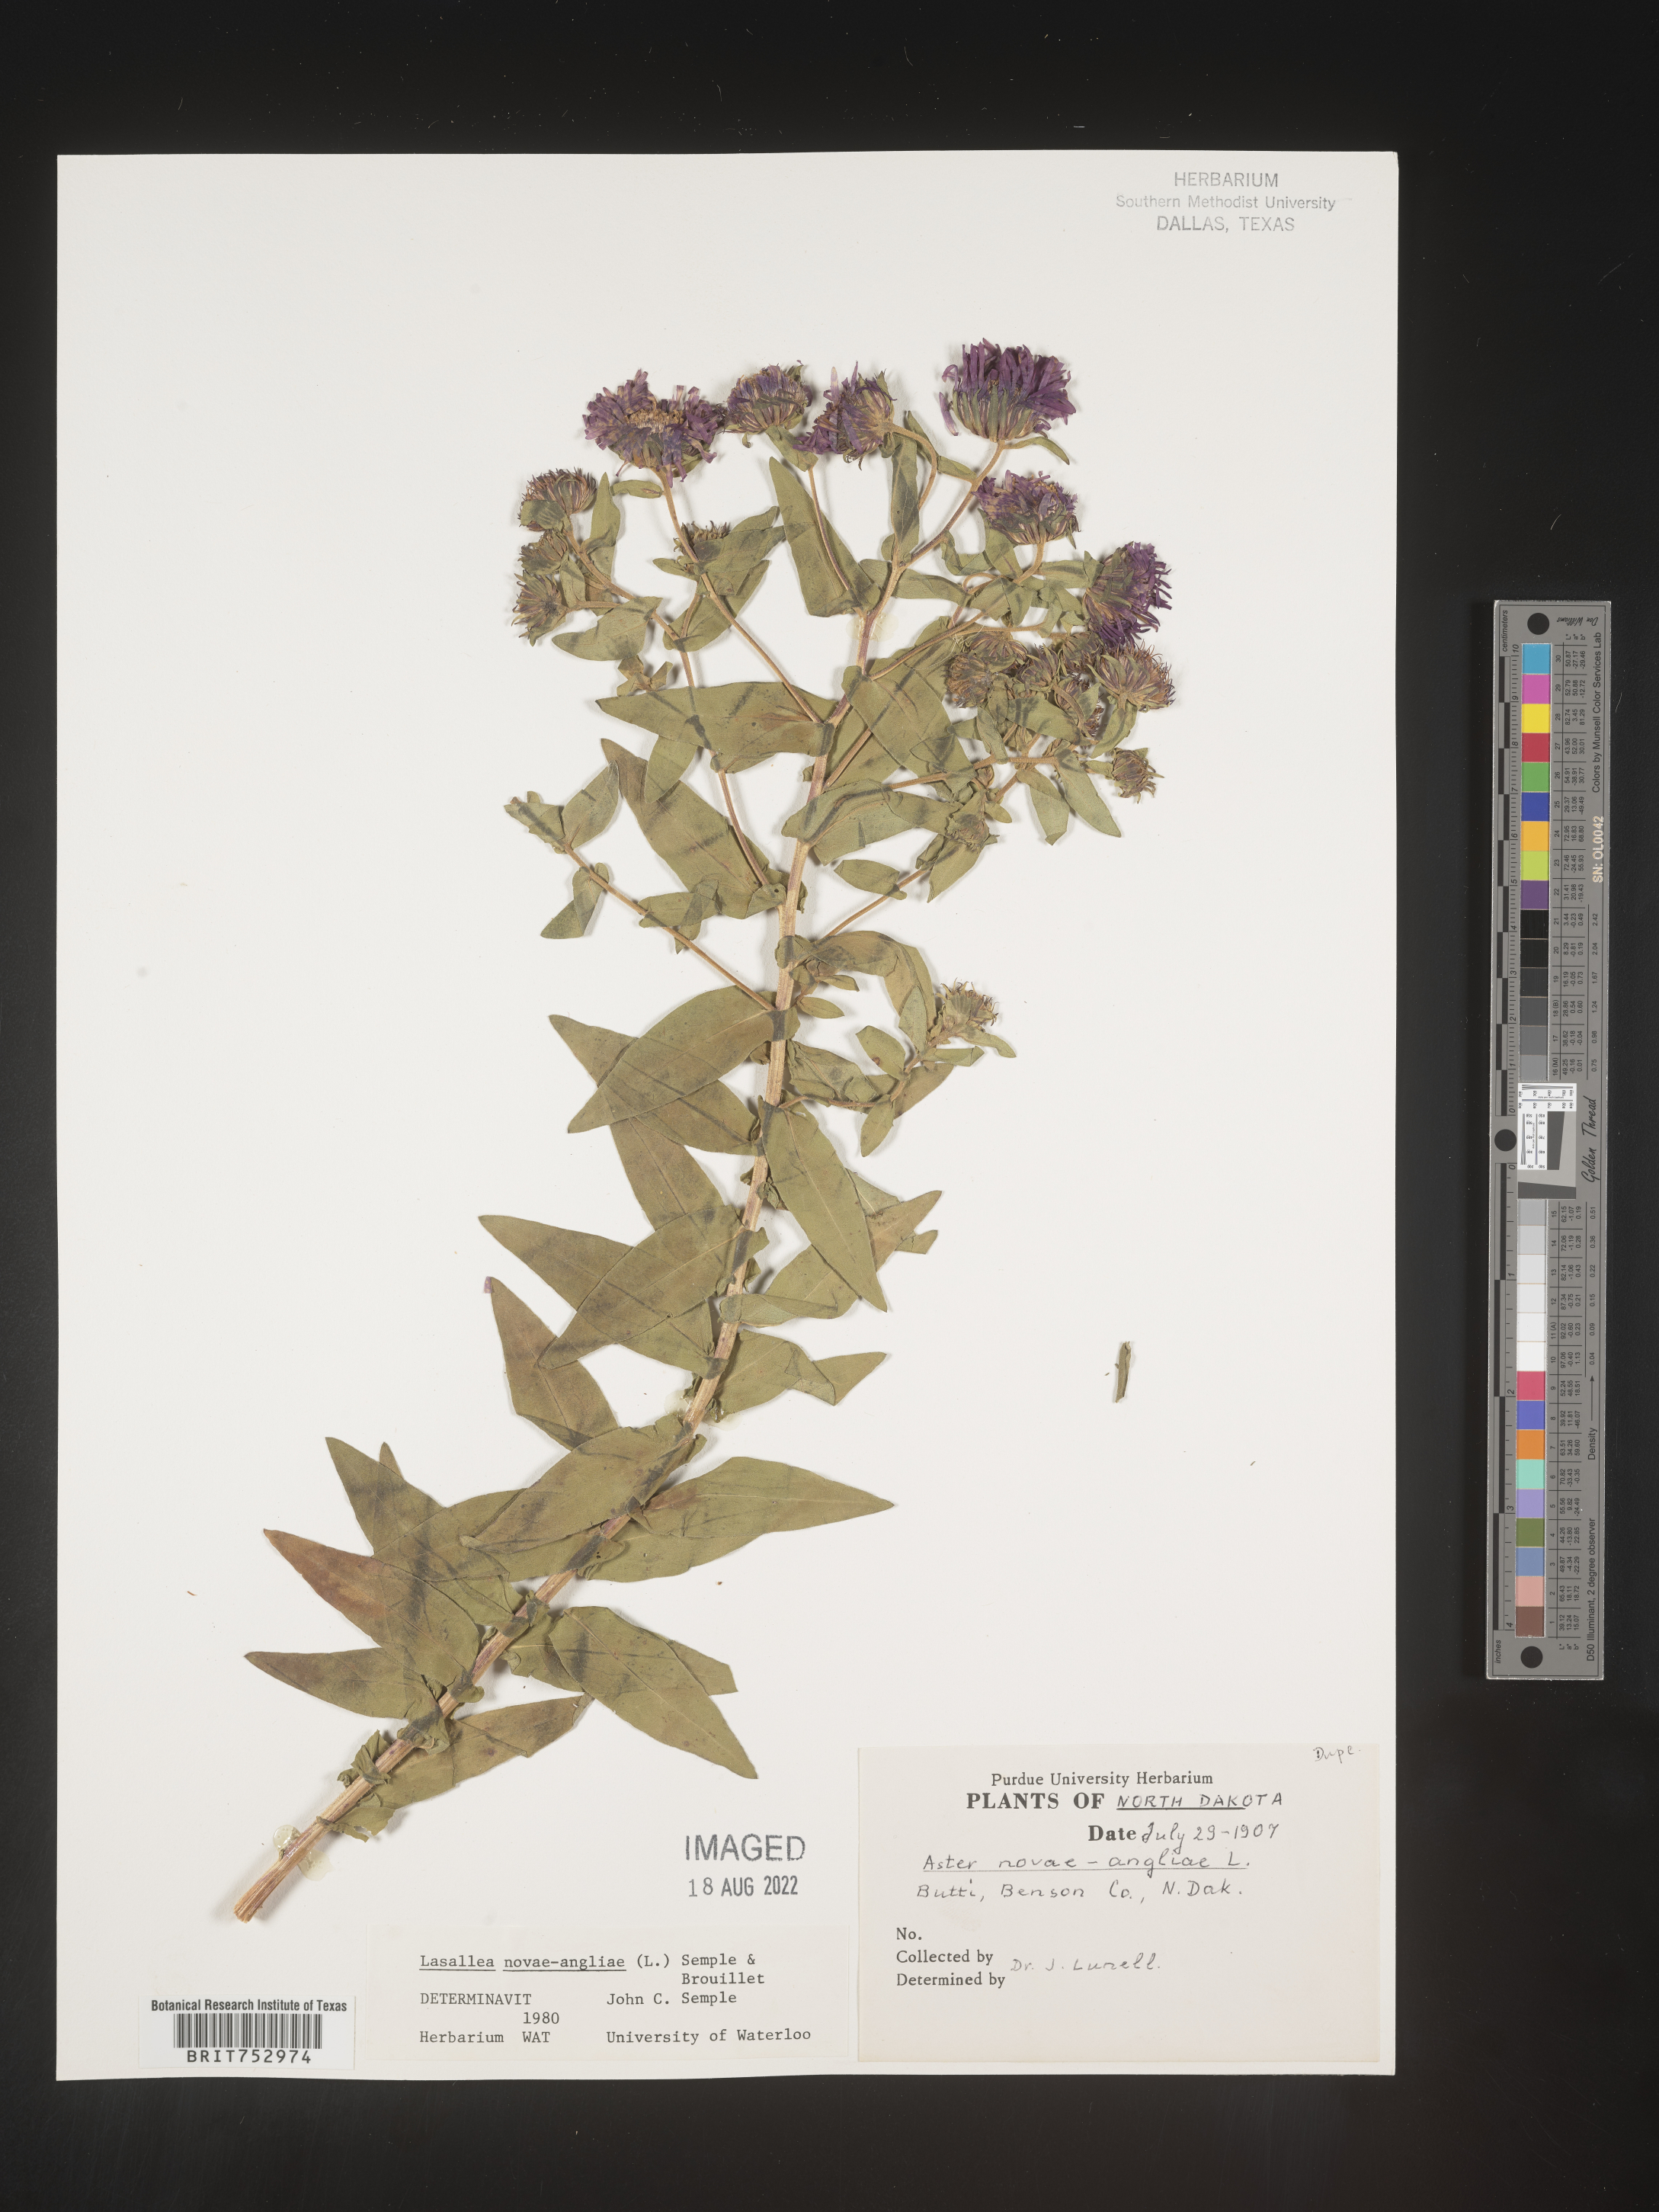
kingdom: Plantae
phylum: Tracheophyta
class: Magnoliopsida
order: Asterales
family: Asteraceae
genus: Symphyotrichum
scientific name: Symphyotrichum novae-angliae
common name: Michaelmas daisy
